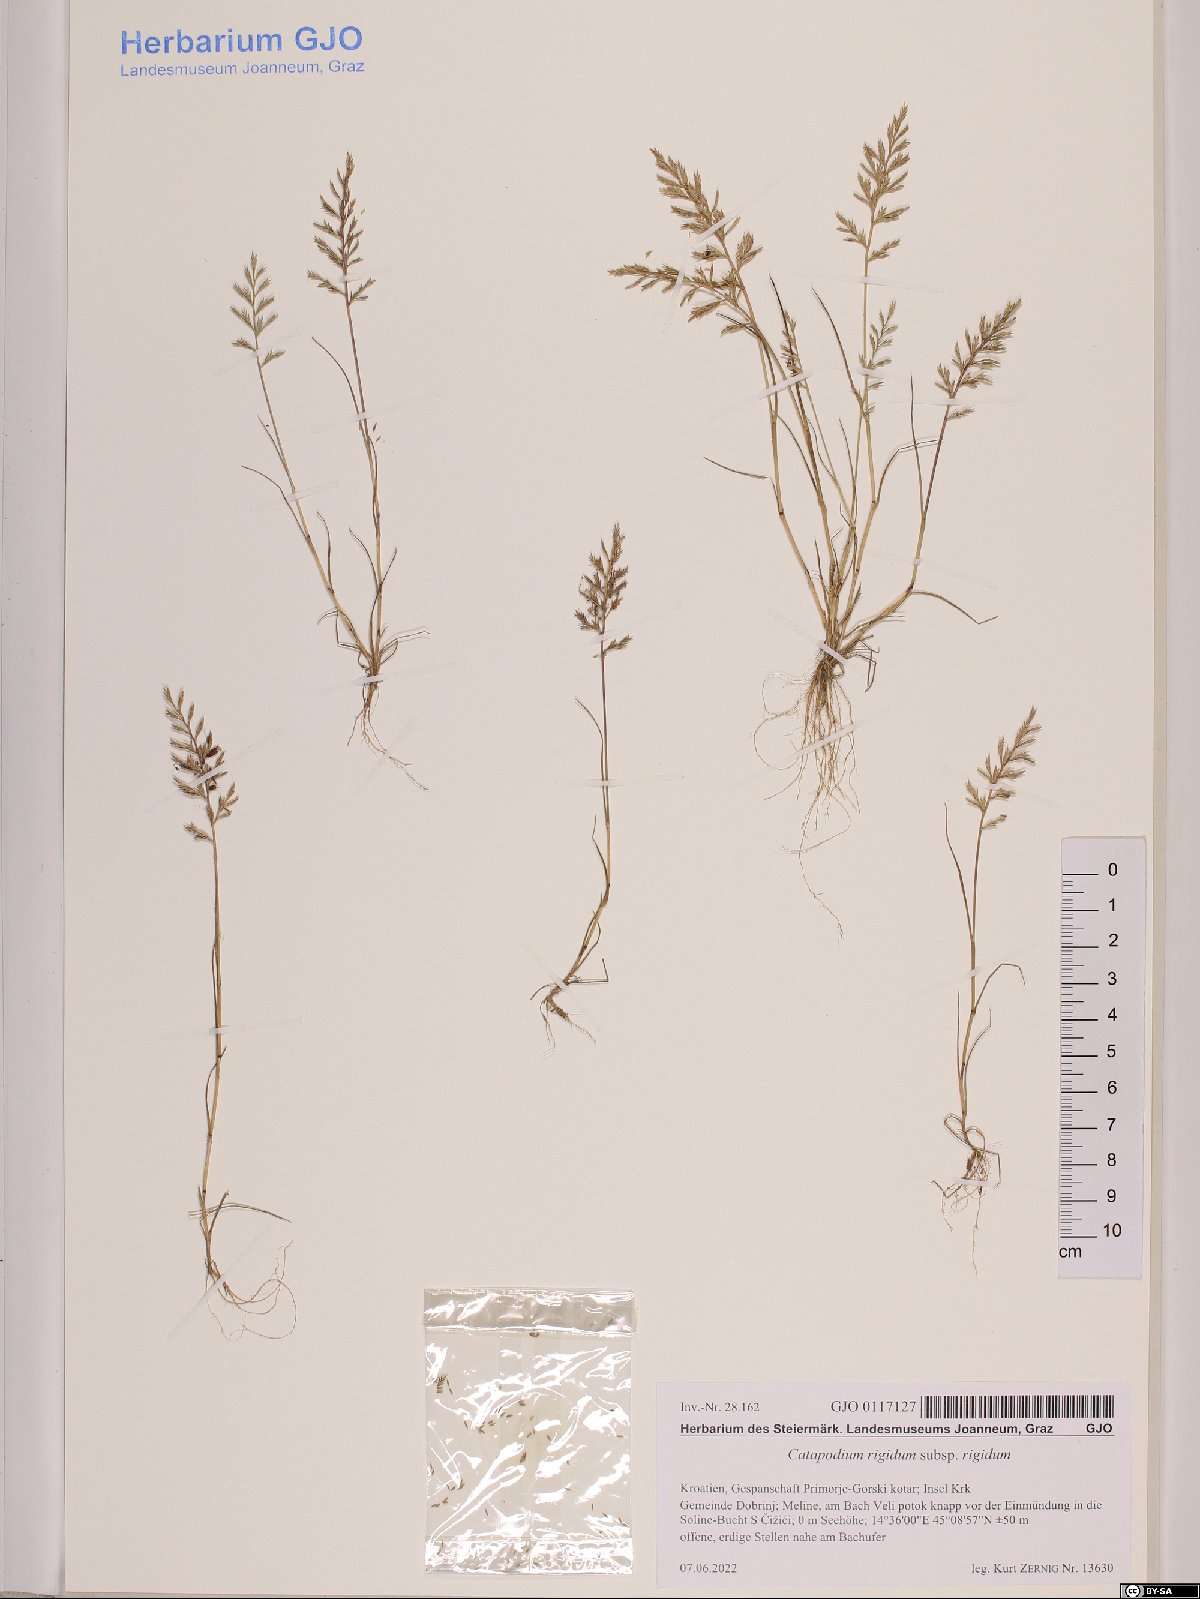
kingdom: Plantae
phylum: Tracheophyta
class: Liliopsida
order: Poales
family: Poaceae
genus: Catapodium
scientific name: Catapodium rigidum
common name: Fern-grass
